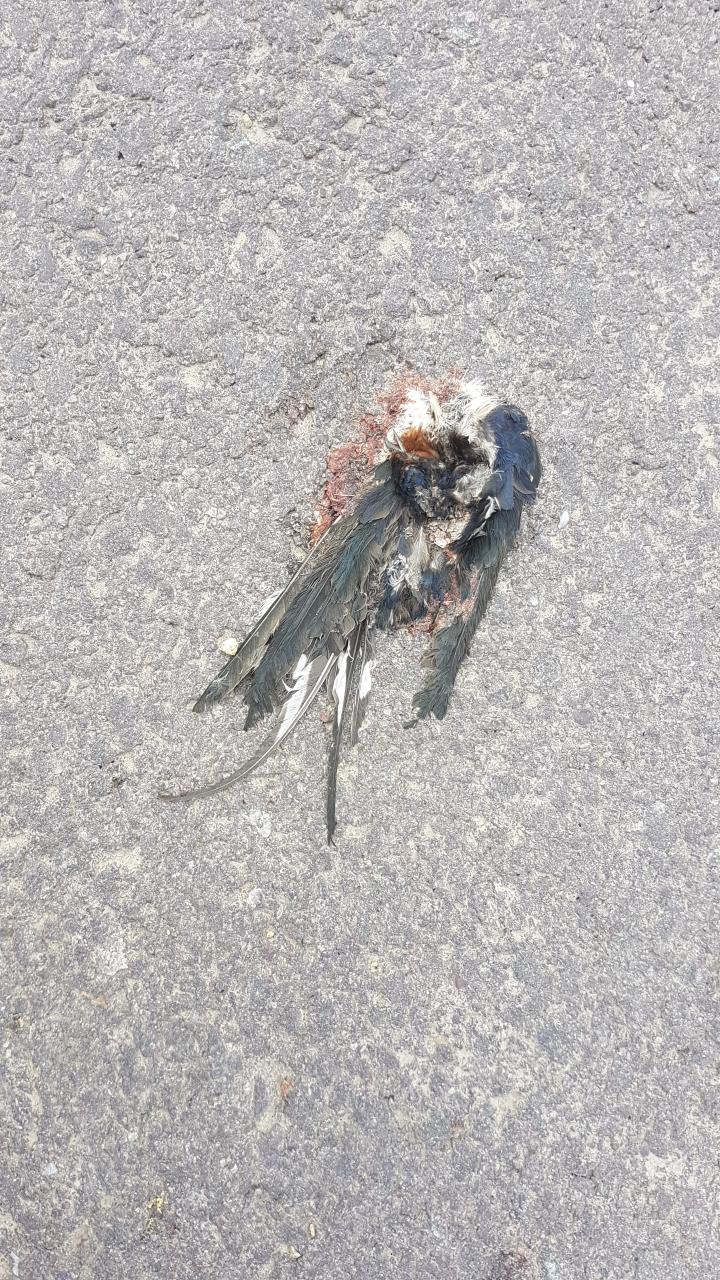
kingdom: Animalia
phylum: Chordata
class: Aves
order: Passeriformes
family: Hirundinidae
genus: Hirundo
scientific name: Hirundo rustica
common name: Barn swallow
